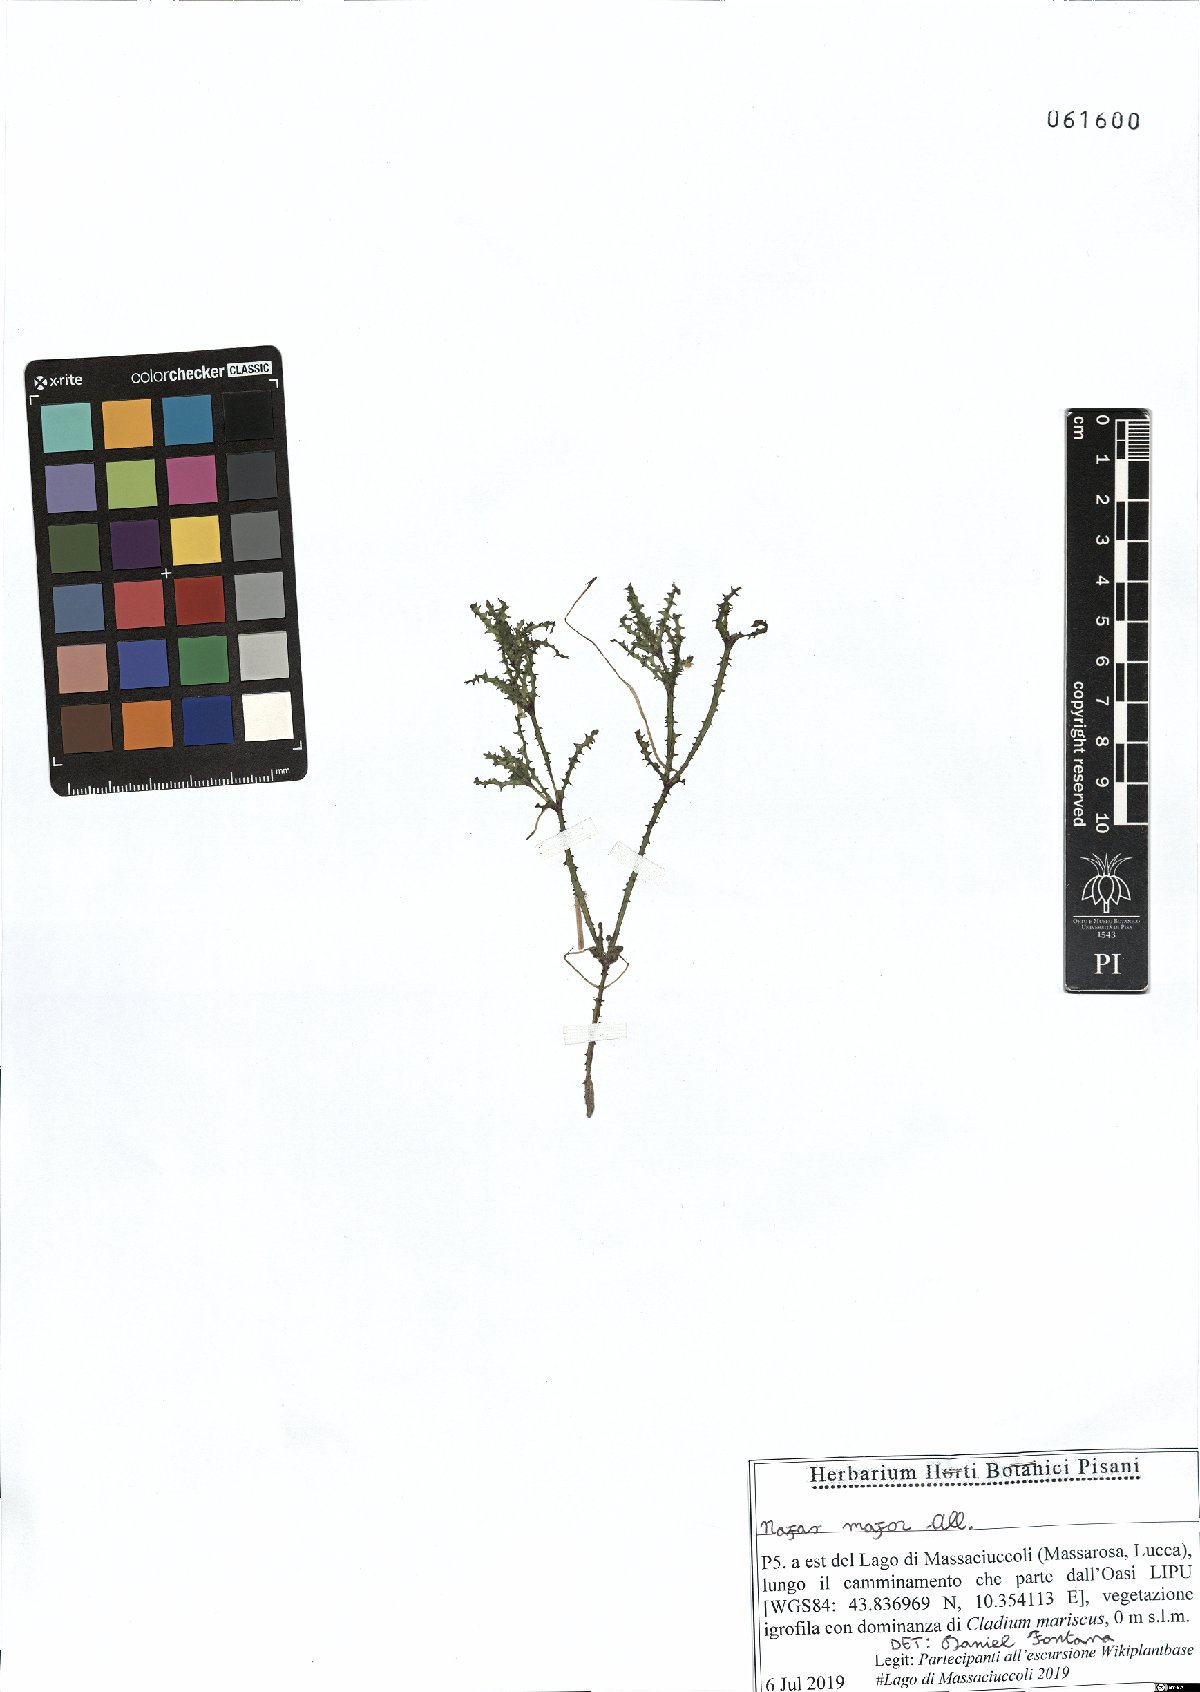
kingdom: Plantae
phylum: Tracheophyta
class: Liliopsida
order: Alismatales
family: Hydrocharitaceae
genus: Najas
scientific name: Najas major
